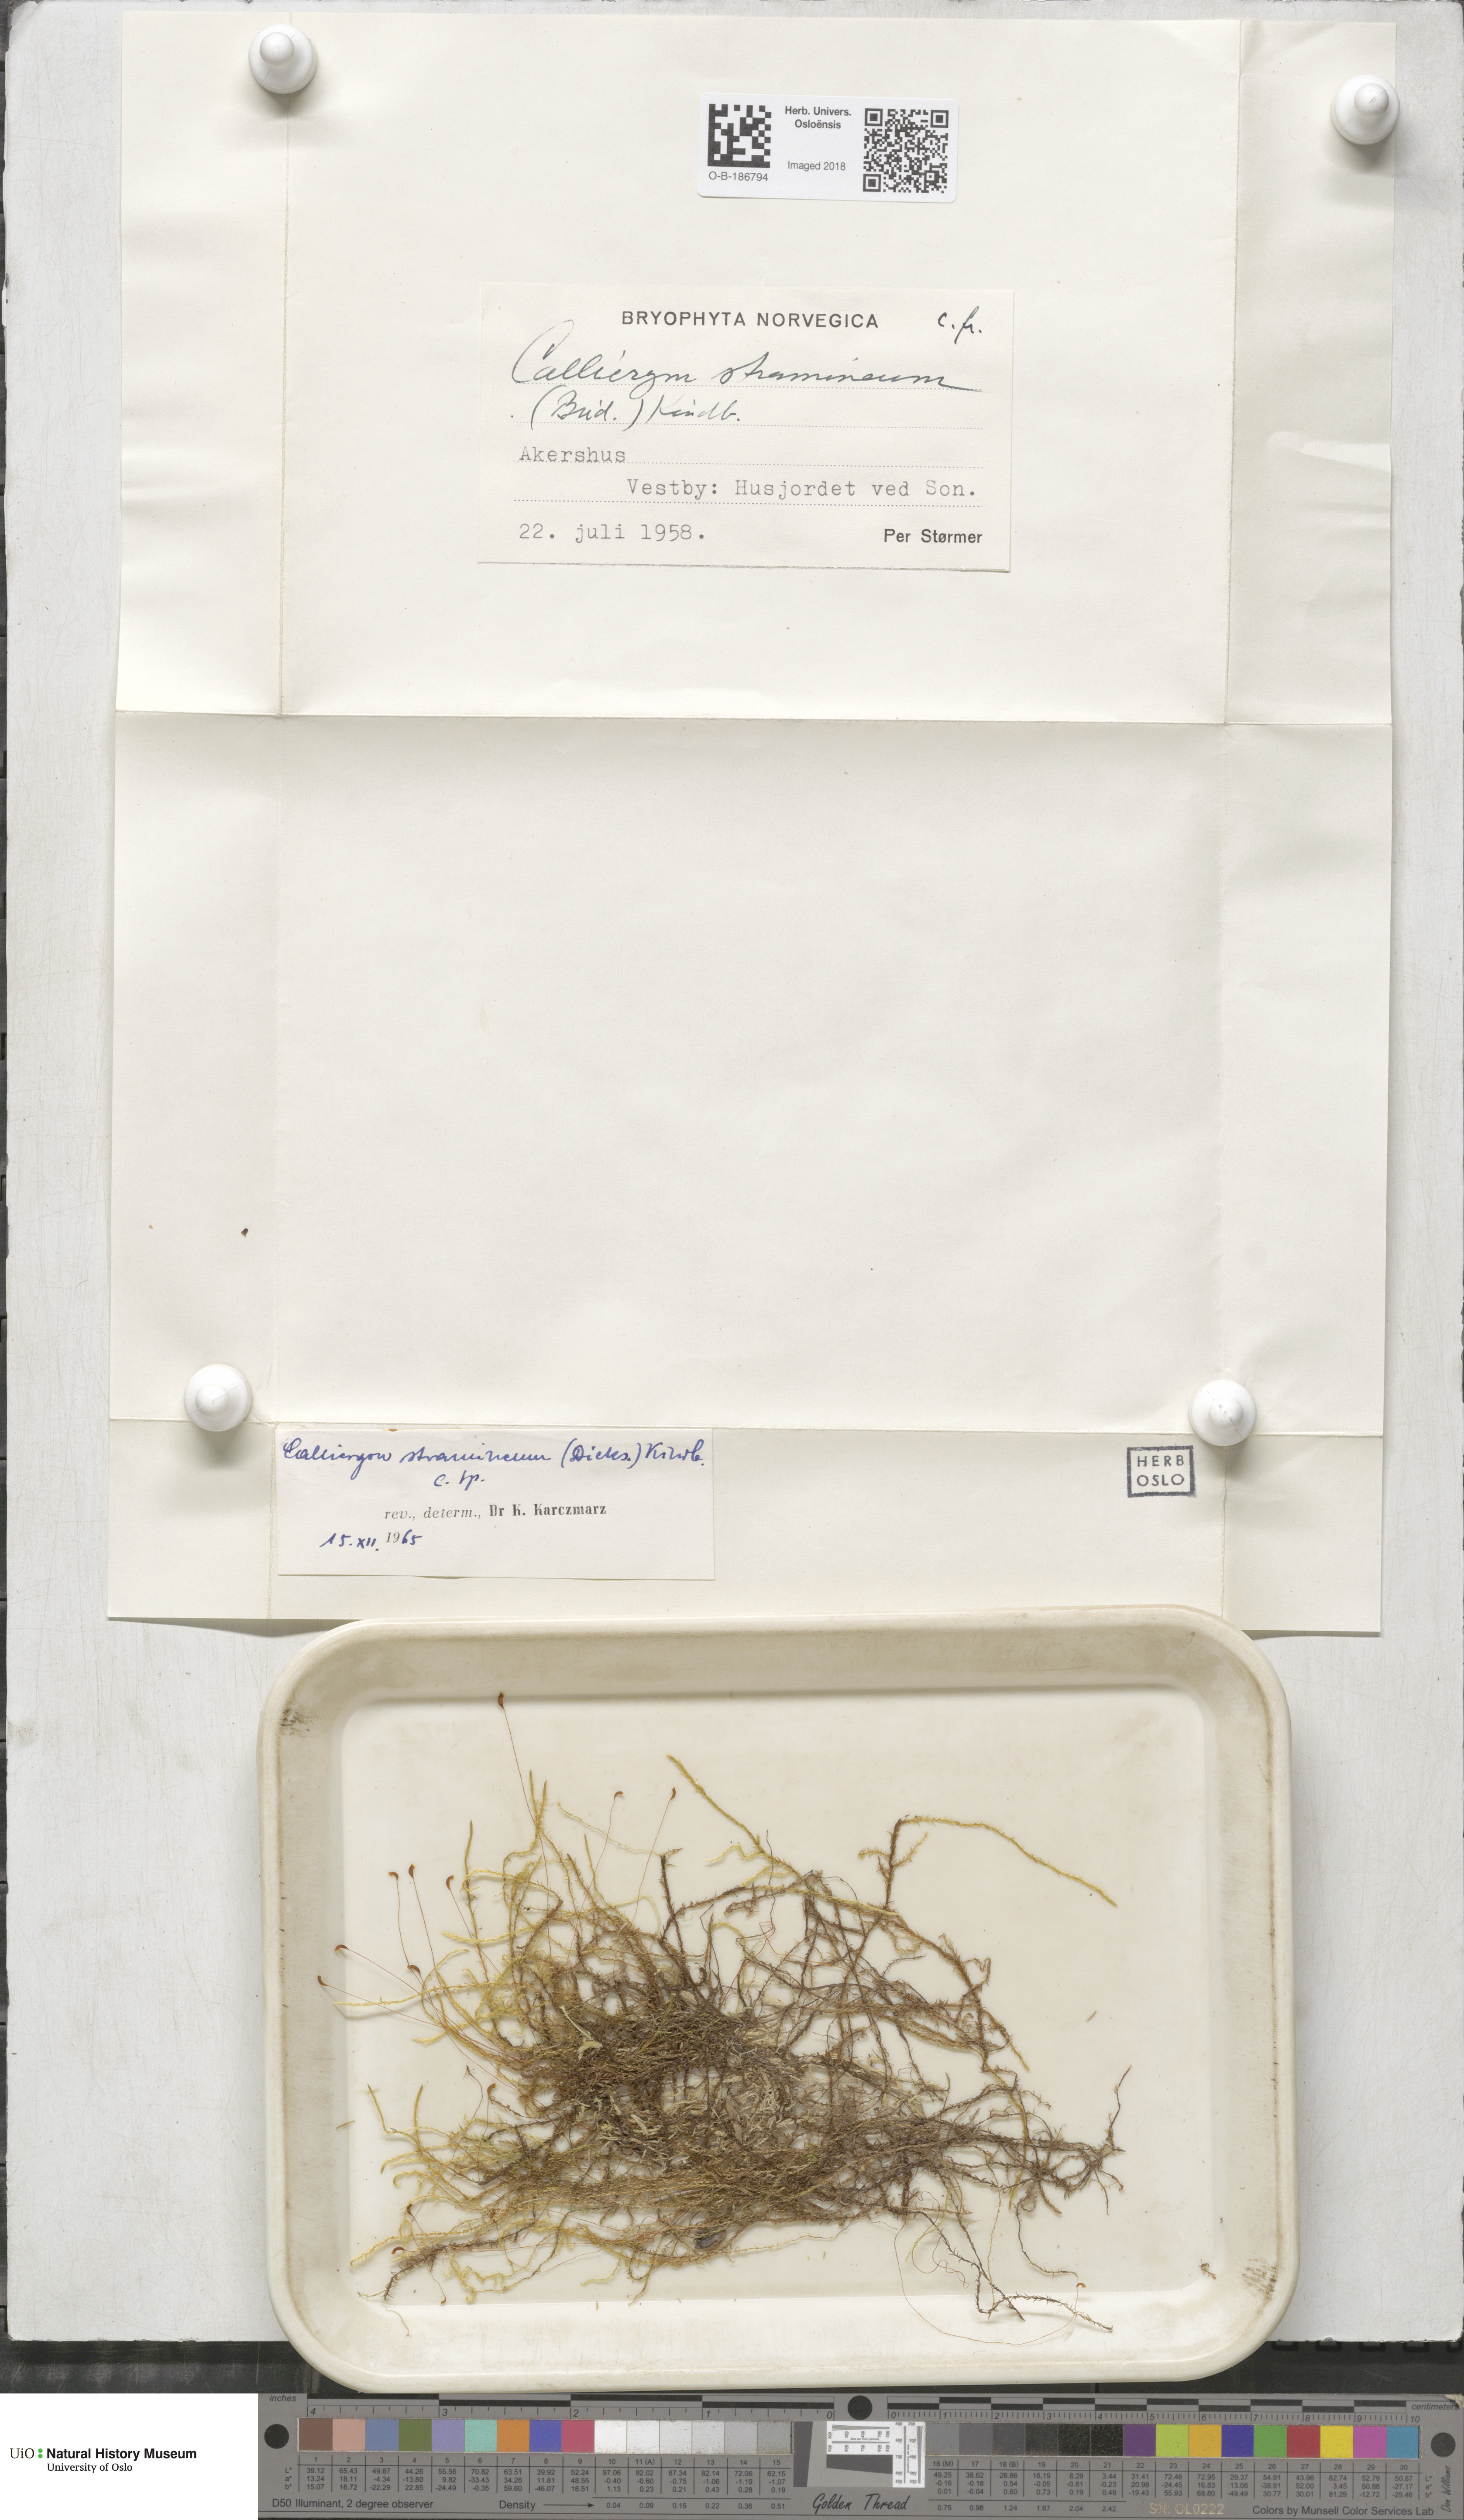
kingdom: Plantae
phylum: Bryophyta
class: Bryopsida
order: Hypnales
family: Calliergonaceae
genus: Straminergon
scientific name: Straminergon stramineum
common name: Straw moss
